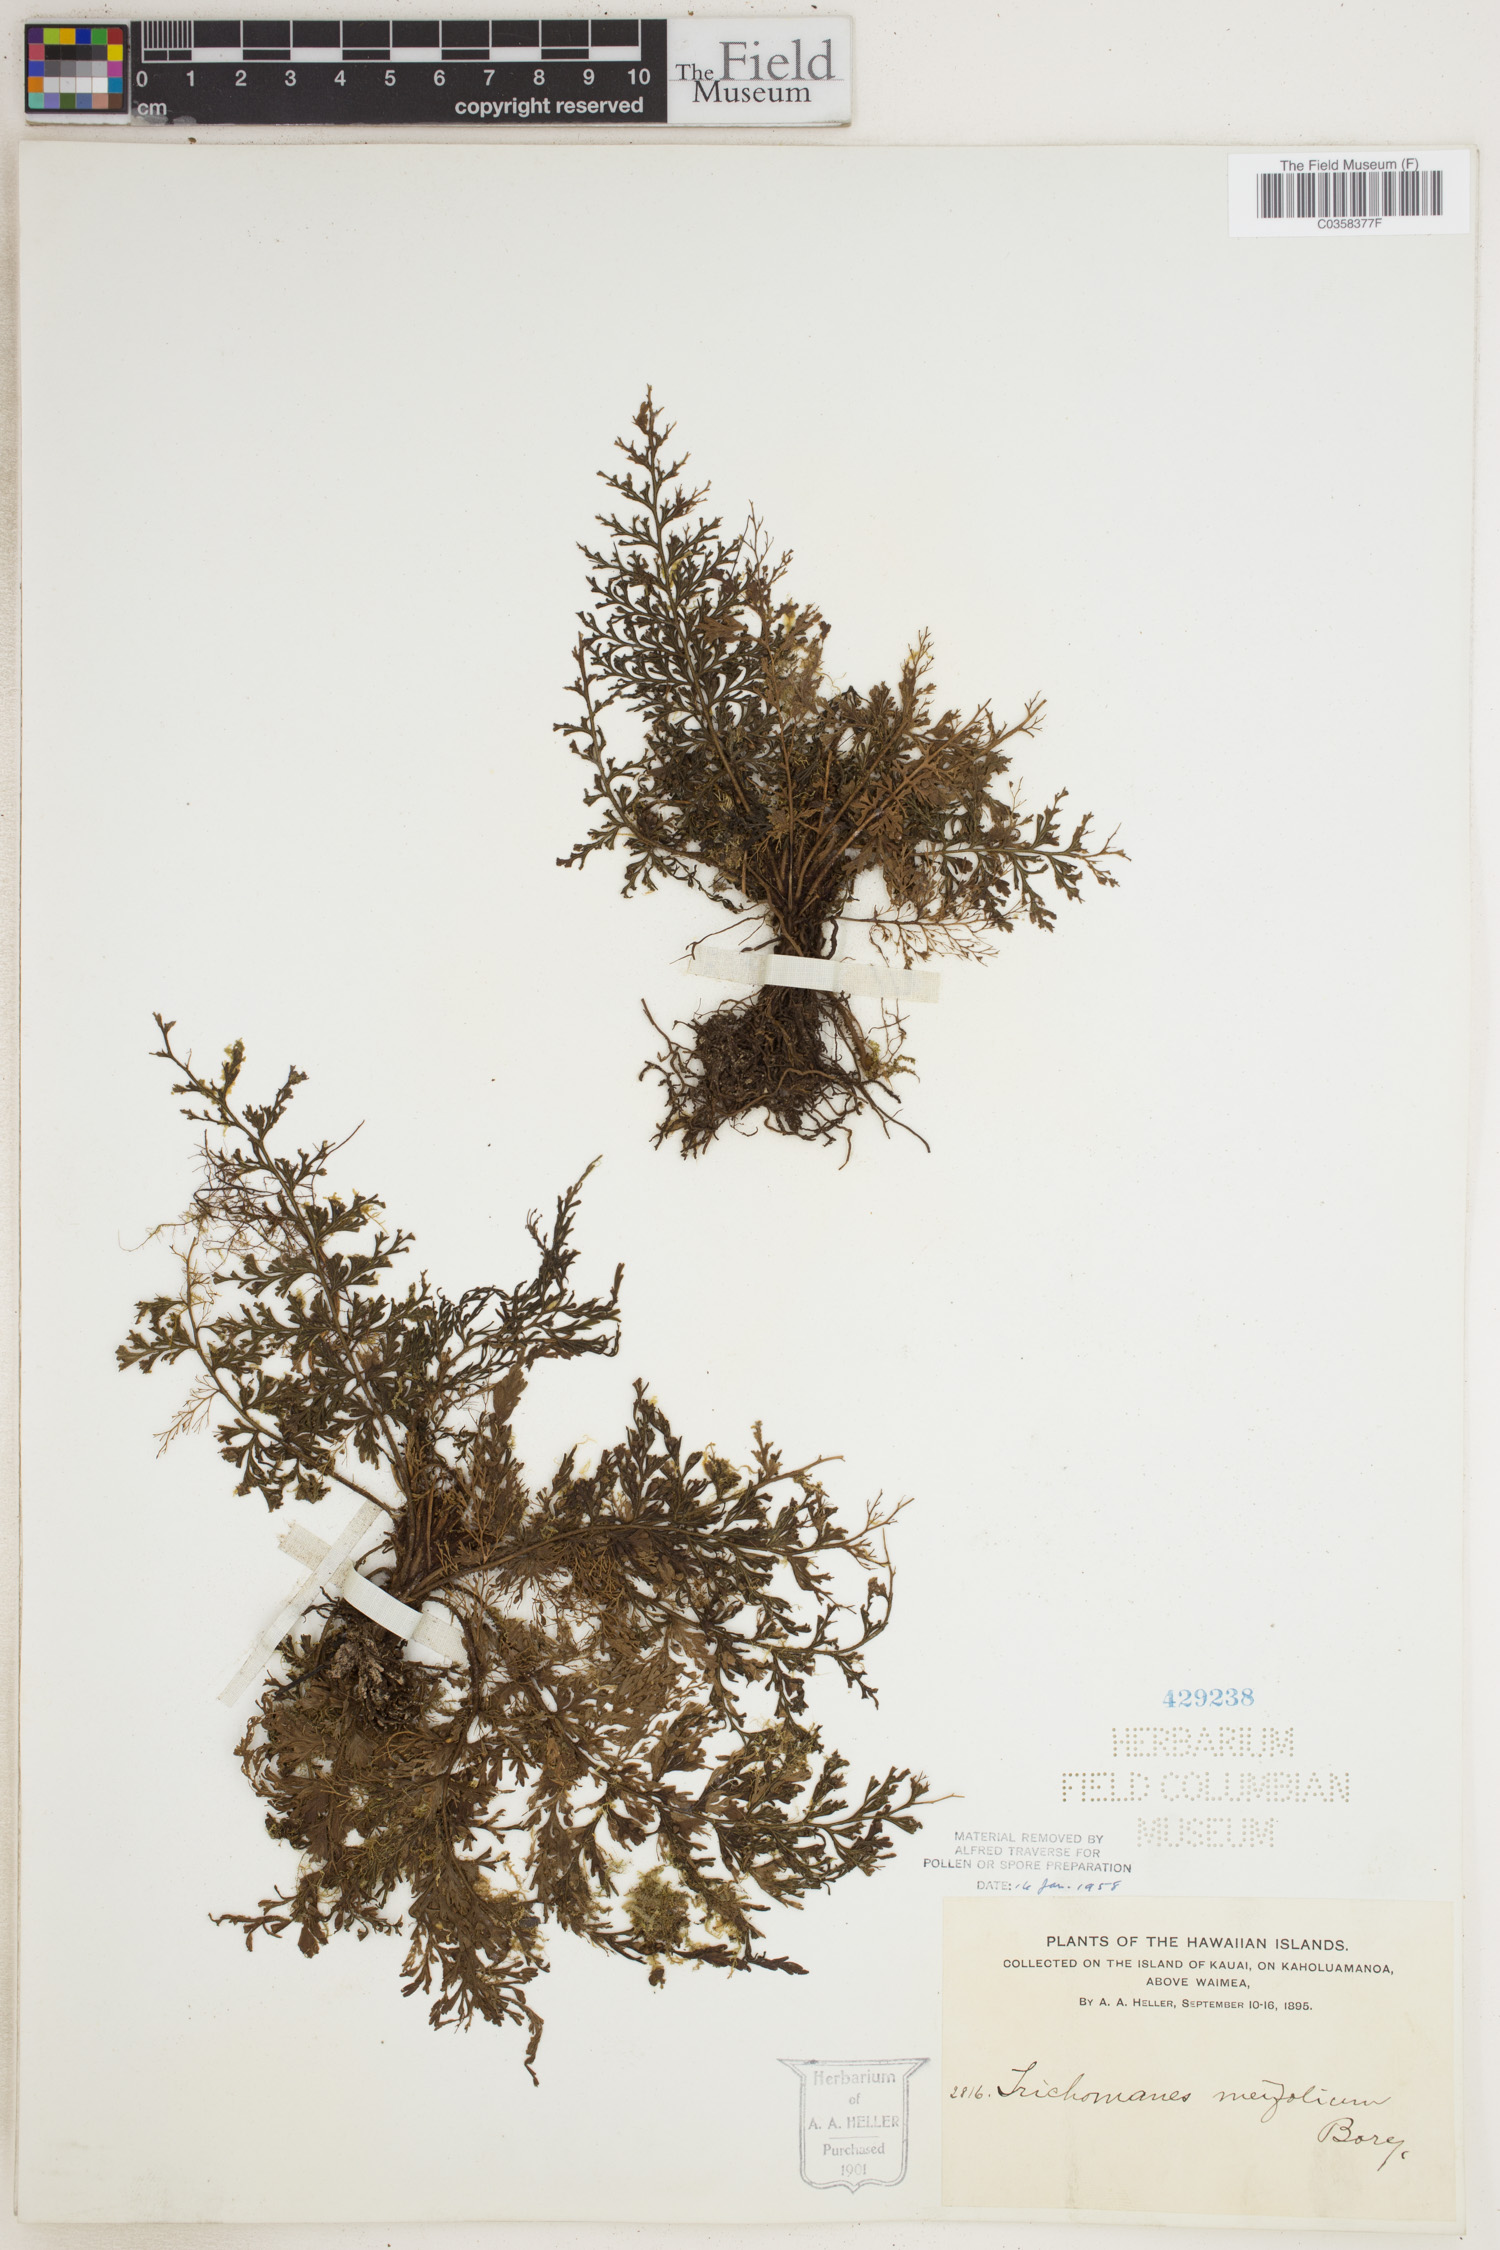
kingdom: Plantae
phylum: Tracheophyta
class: Polypodiopsida
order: Hymenophyllales
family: Hymenophyllaceae
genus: Abrodictyum
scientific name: Abrodictyum parviflorum
